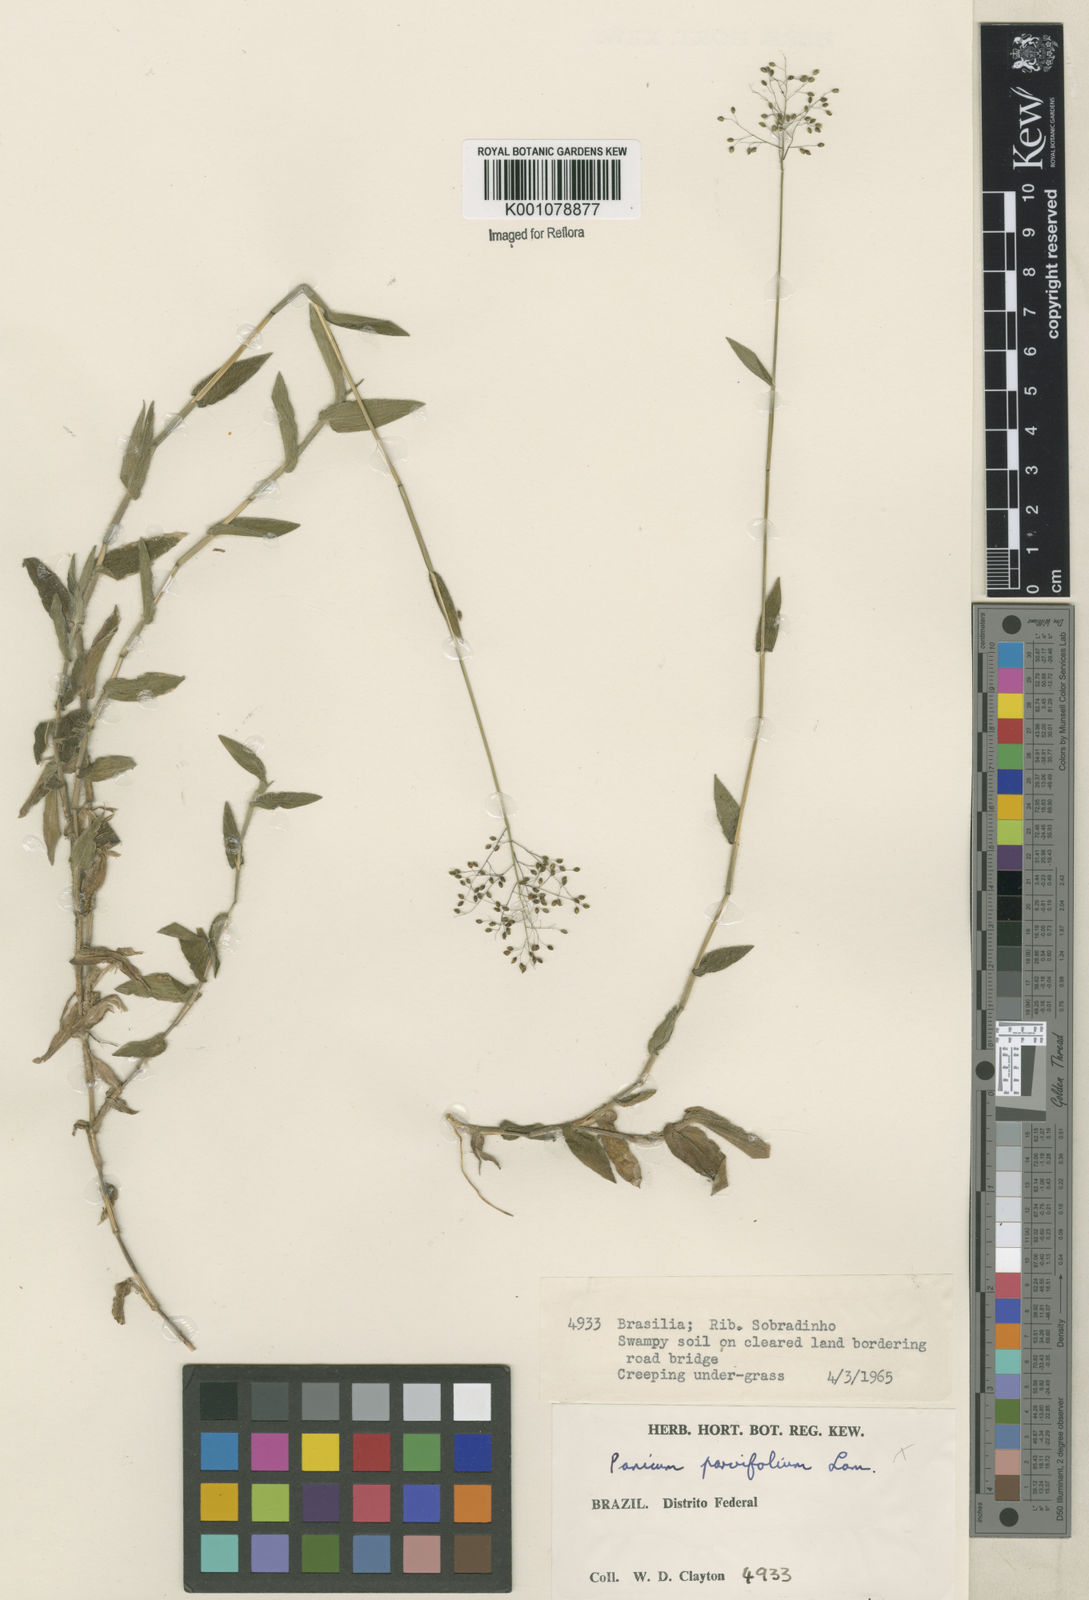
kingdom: Plantae
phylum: Tracheophyta
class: Liliopsida
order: Poales
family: Poaceae
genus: Trichanthecium
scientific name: Trichanthecium parvifolium
